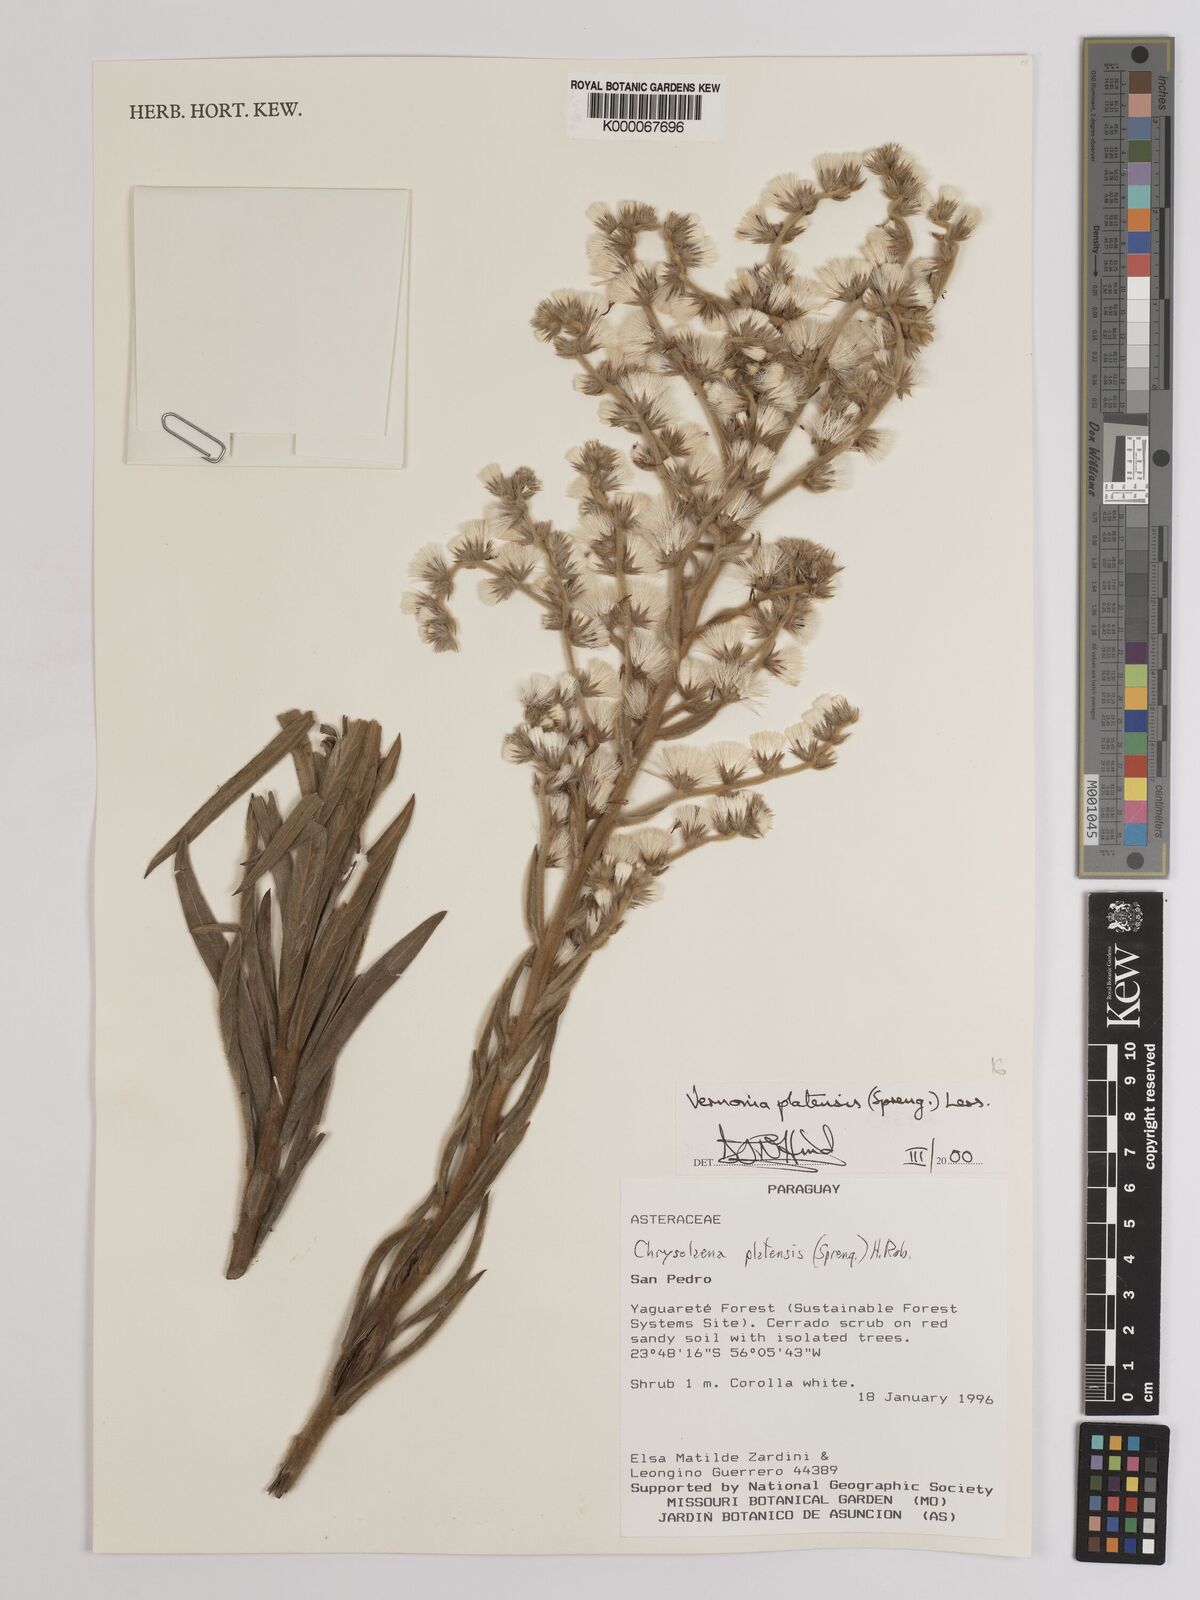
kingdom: Plantae
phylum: Tracheophyta
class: Magnoliopsida
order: Asterales
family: Asteraceae
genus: Chrysolaena
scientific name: Chrysolaena platensis
